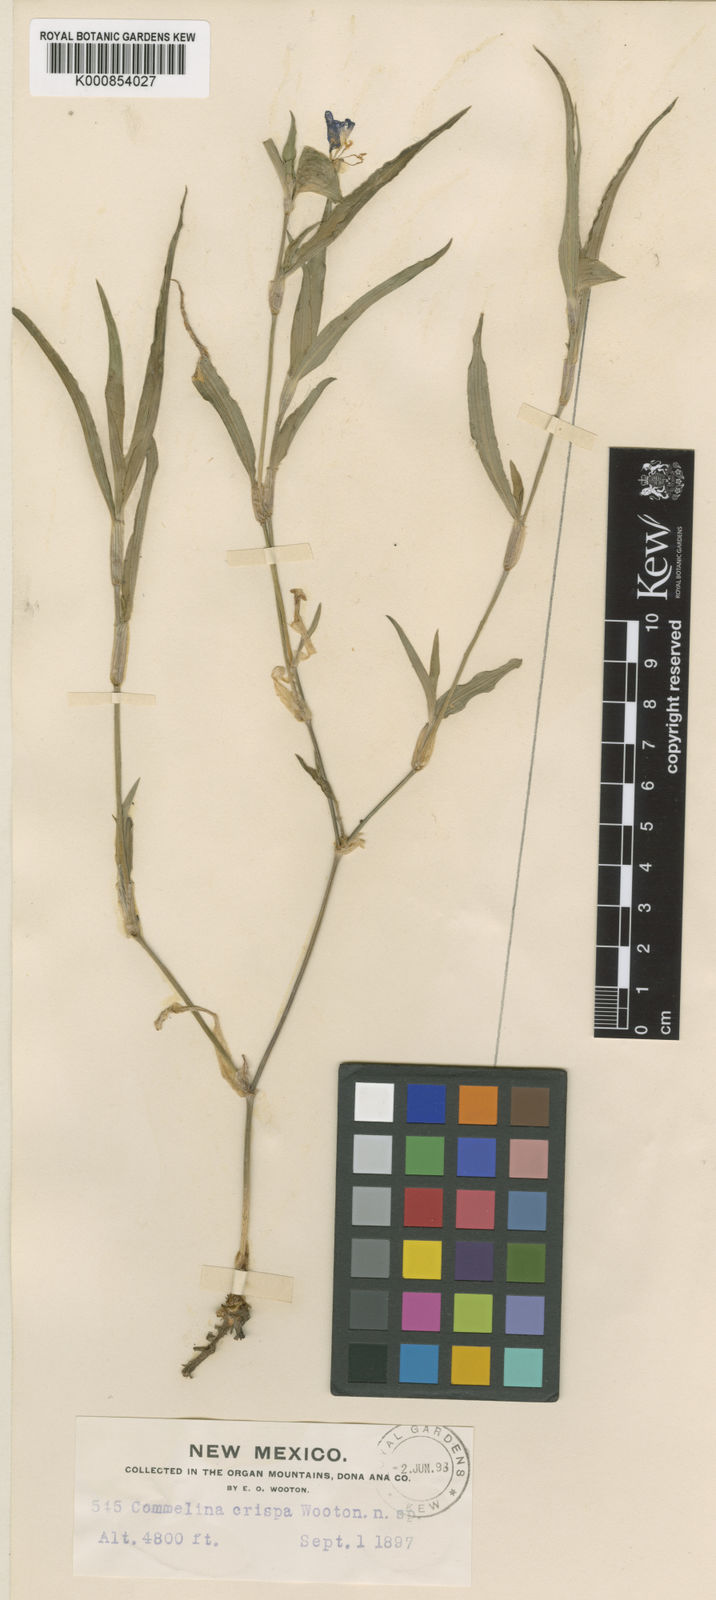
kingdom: Plantae
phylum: Tracheophyta
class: Liliopsida
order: Commelinales
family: Commelinaceae
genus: Commelina
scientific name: Commelina erecta
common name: Blousel blommetjie
